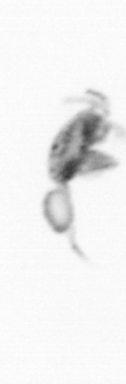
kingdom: Animalia
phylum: Arthropoda
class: Copepoda
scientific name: Copepoda
